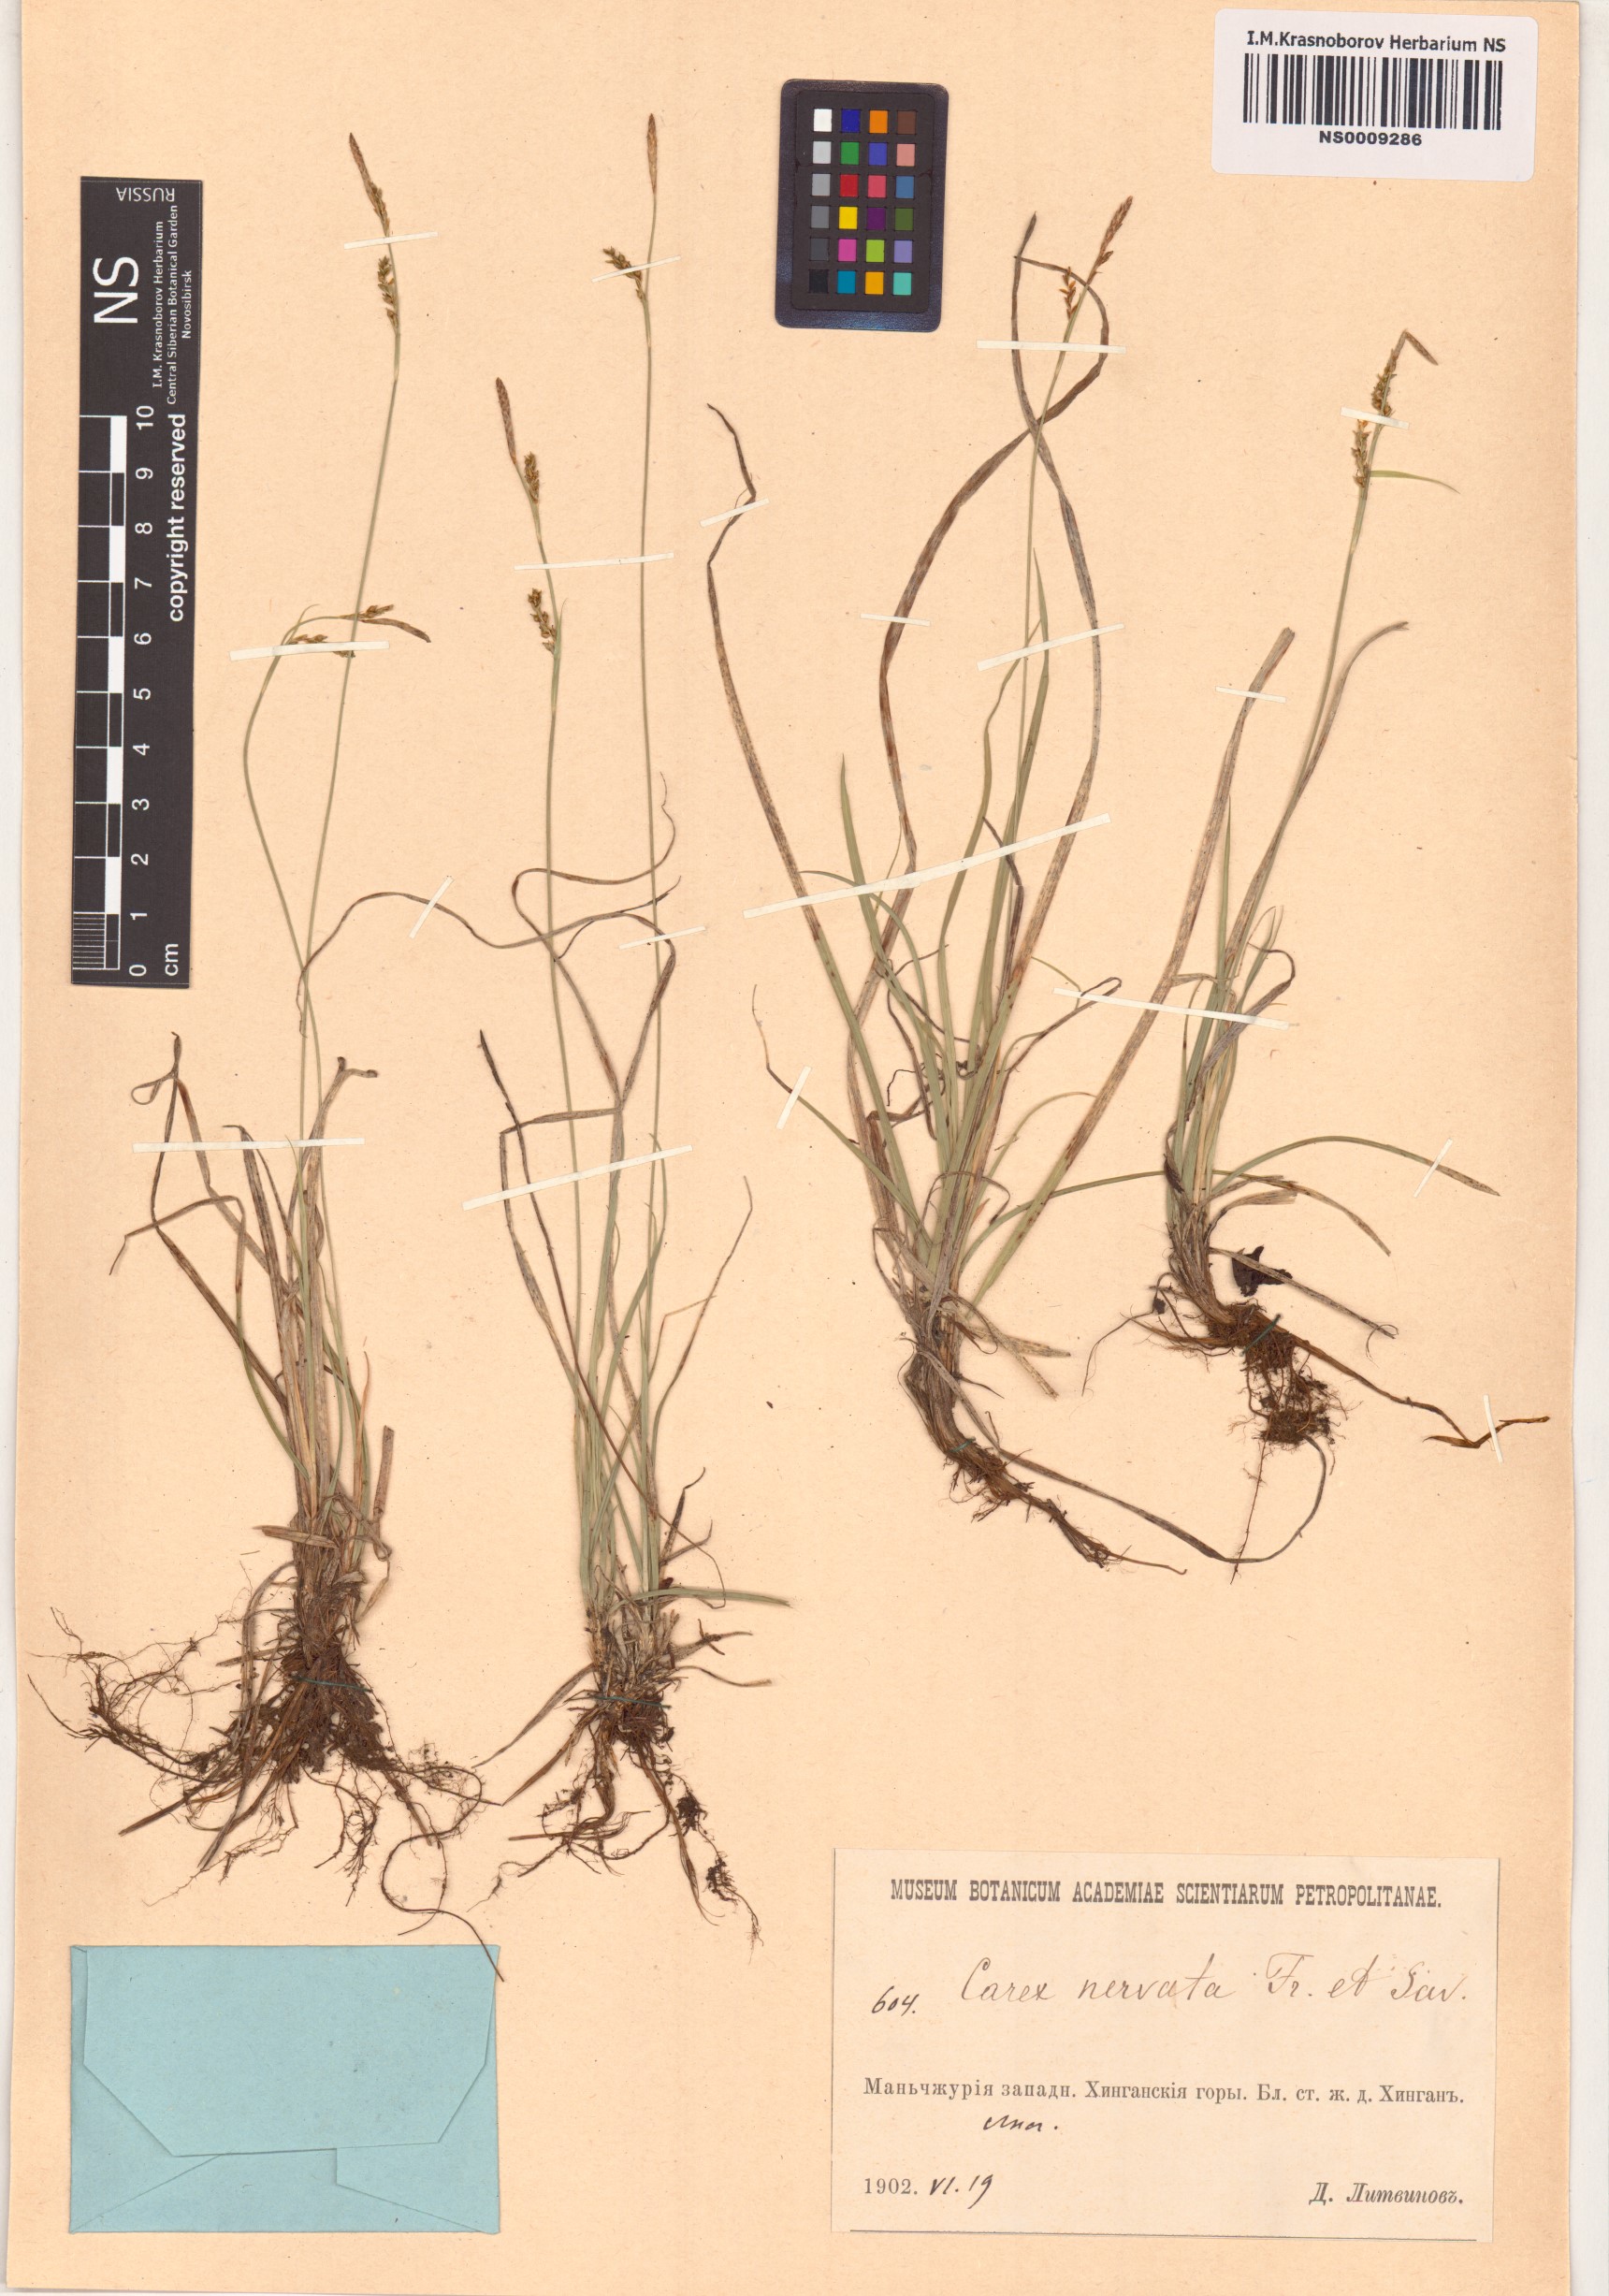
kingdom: Plantae
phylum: Tracheophyta
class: Liliopsida
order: Poales
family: Cyperaceae
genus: Carex
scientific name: Carex nervata
